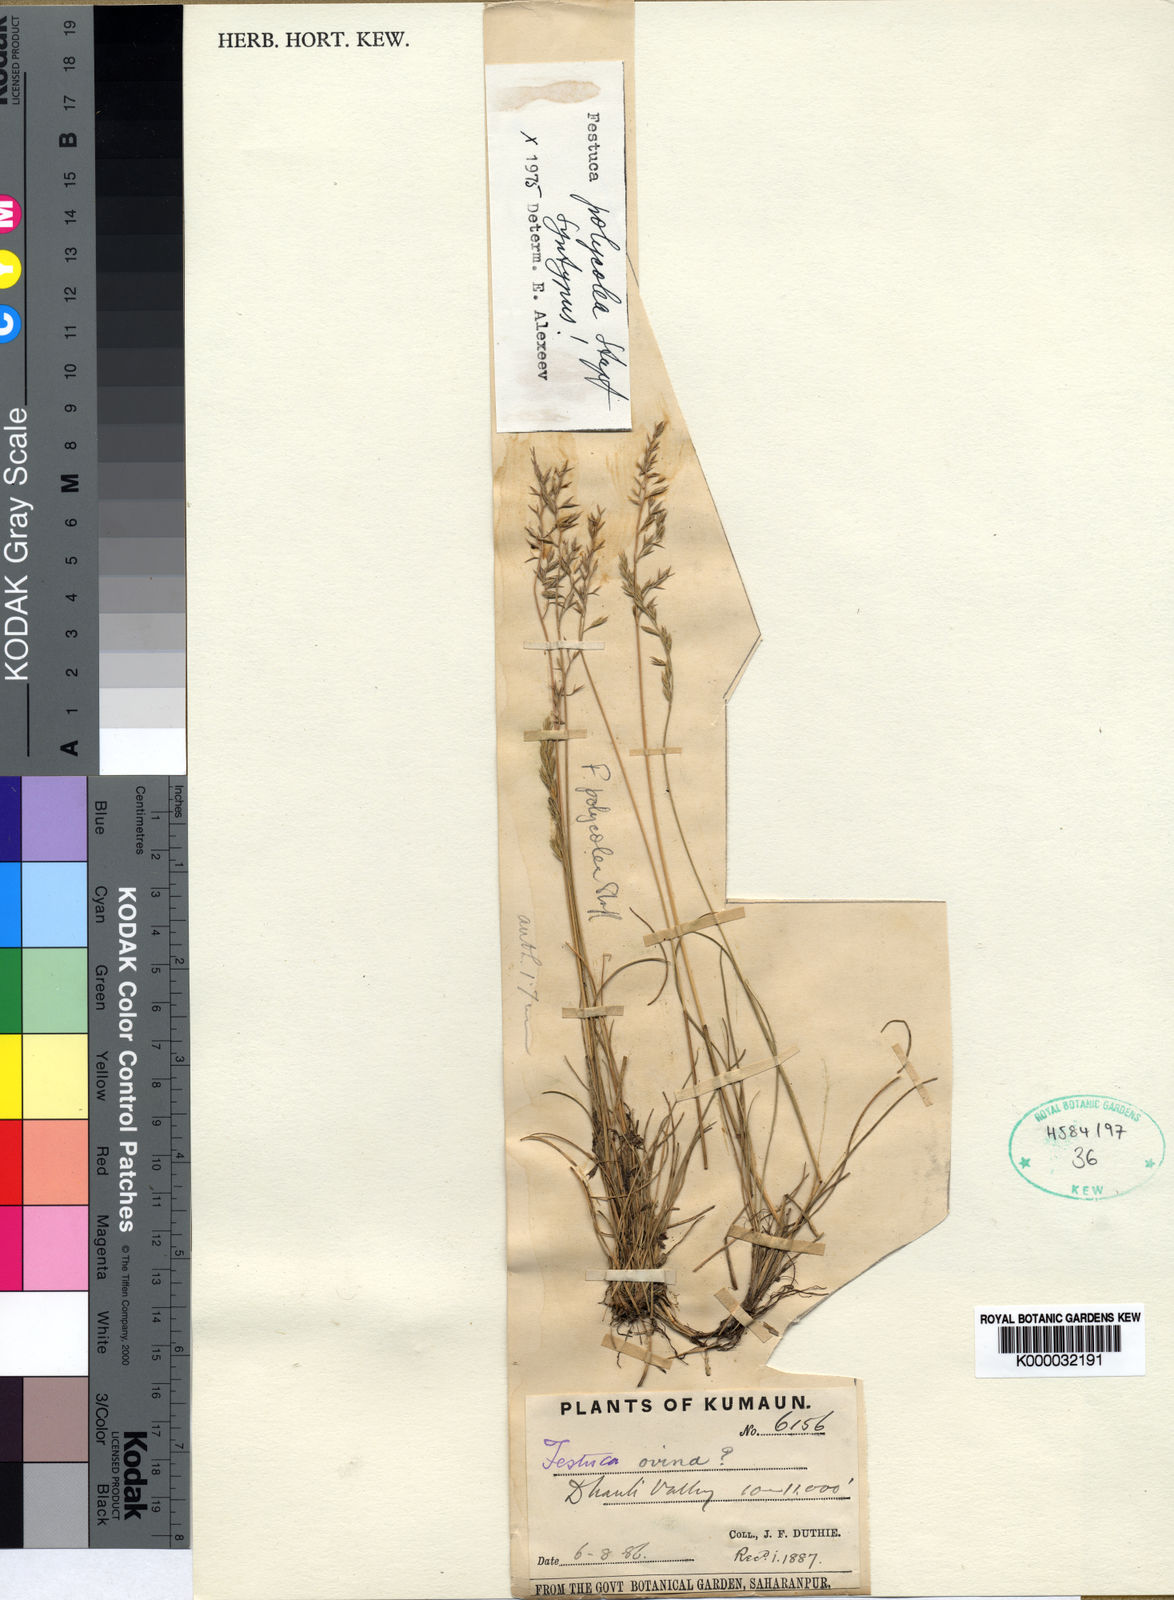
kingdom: Plantae
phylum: Tracheophyta
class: Liliopsida
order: Poales
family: Poaceae
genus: Festuca
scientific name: Festuca polycolea
